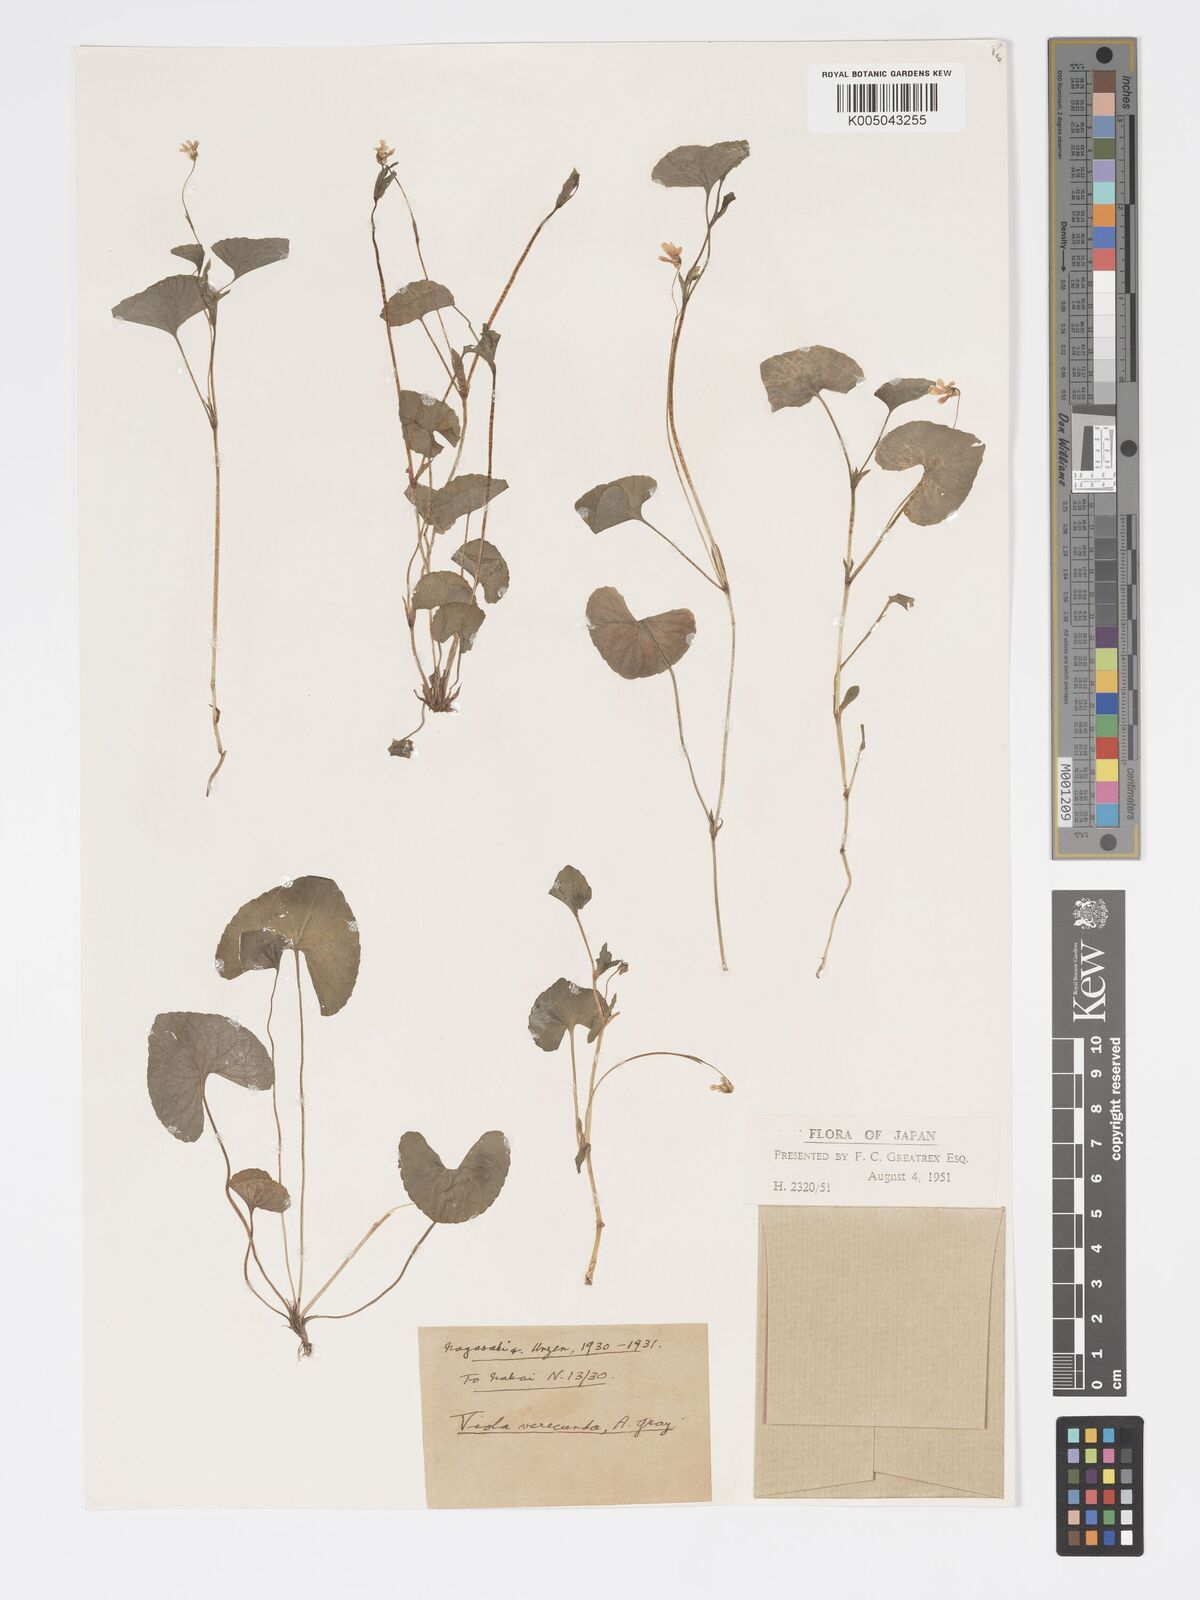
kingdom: Plantae
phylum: Tracheophyta
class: Magnoliopsida
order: Malpighiales
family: Violaceae
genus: Viola
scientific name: Viola hamiltoniana
